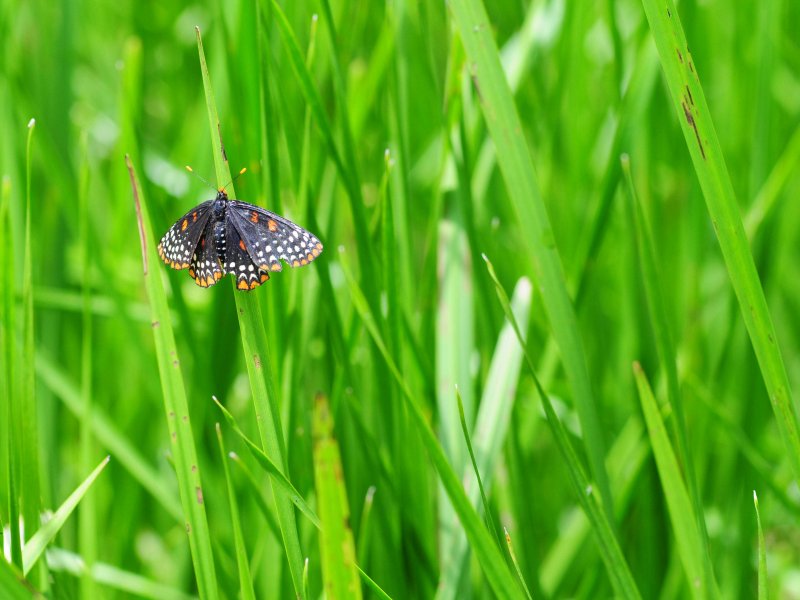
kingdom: Animalia
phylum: Arthropoda
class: Insecta
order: Lepidoptera
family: Nymphalidae
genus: Euphydryas
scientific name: Euphydryas phaeton
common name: Baltimore Checkerspot
